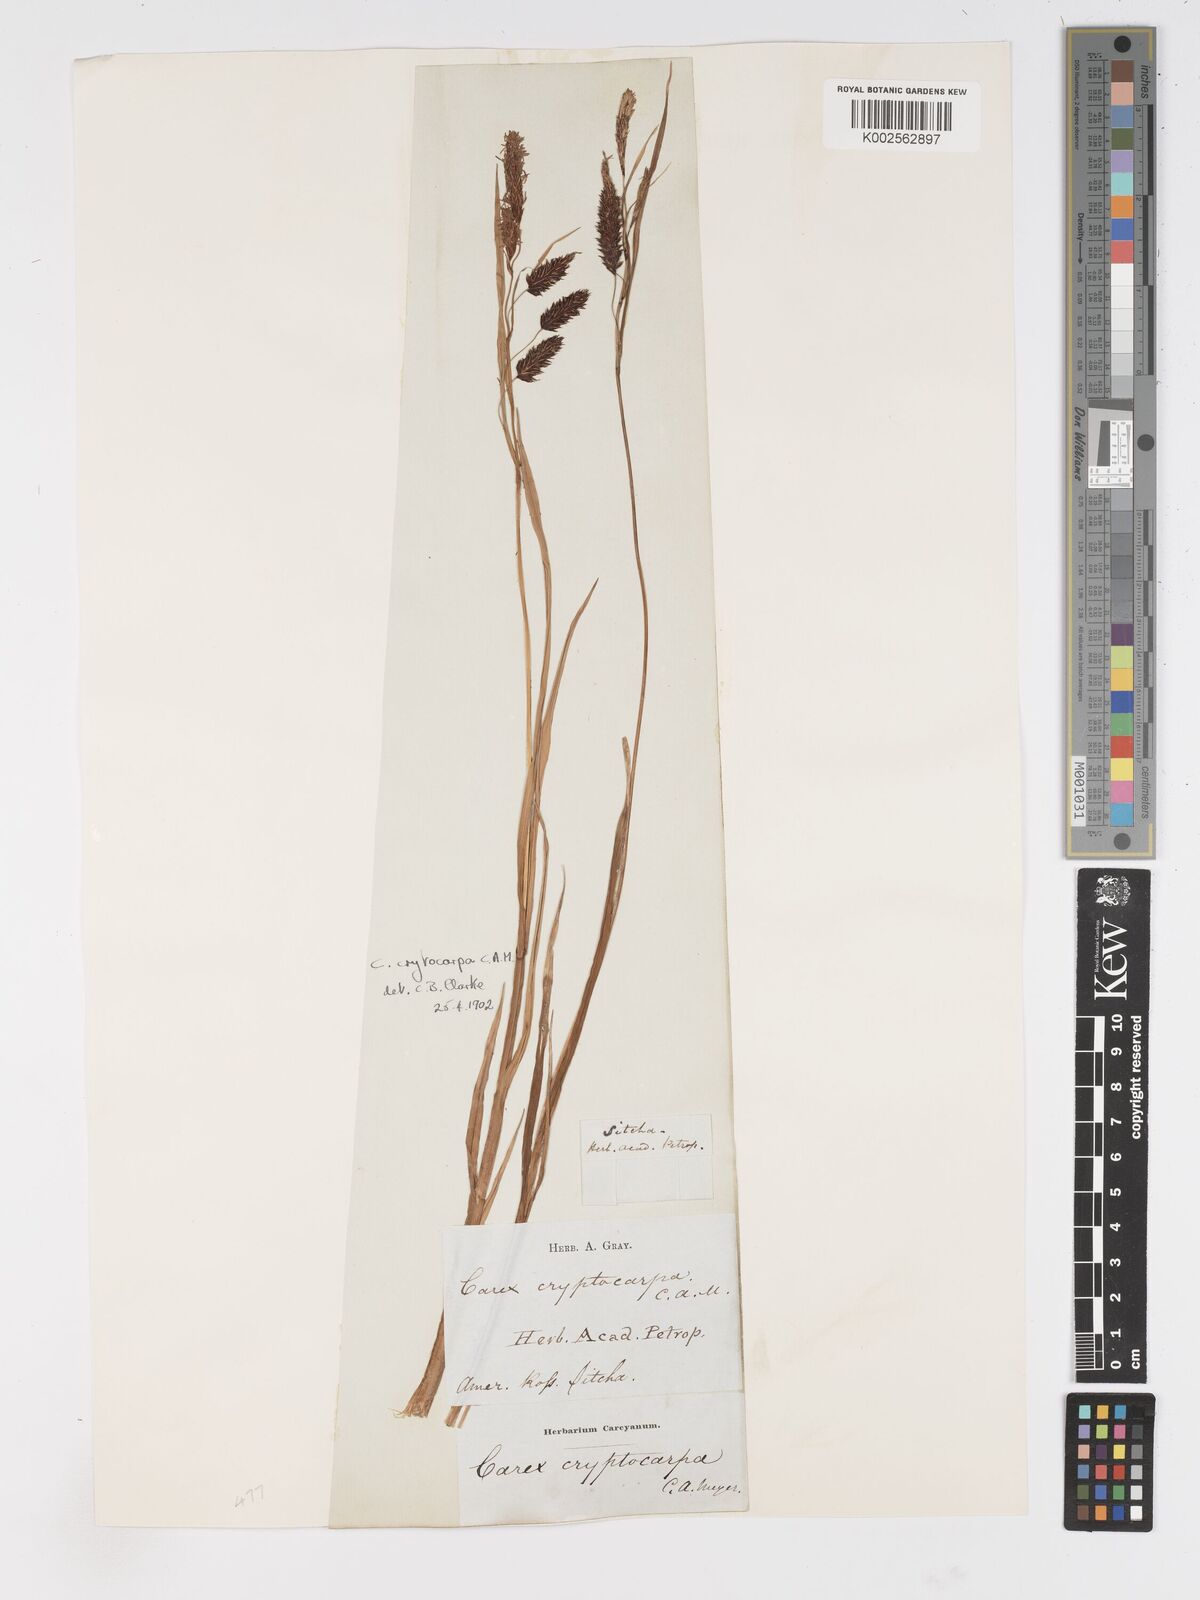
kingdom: Plantae
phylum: Tracheophyta
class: Liliopsida
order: Poales
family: Cyperaceae
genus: Carex
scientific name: Carex lyngbyei
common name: Lyngbye's sedge
